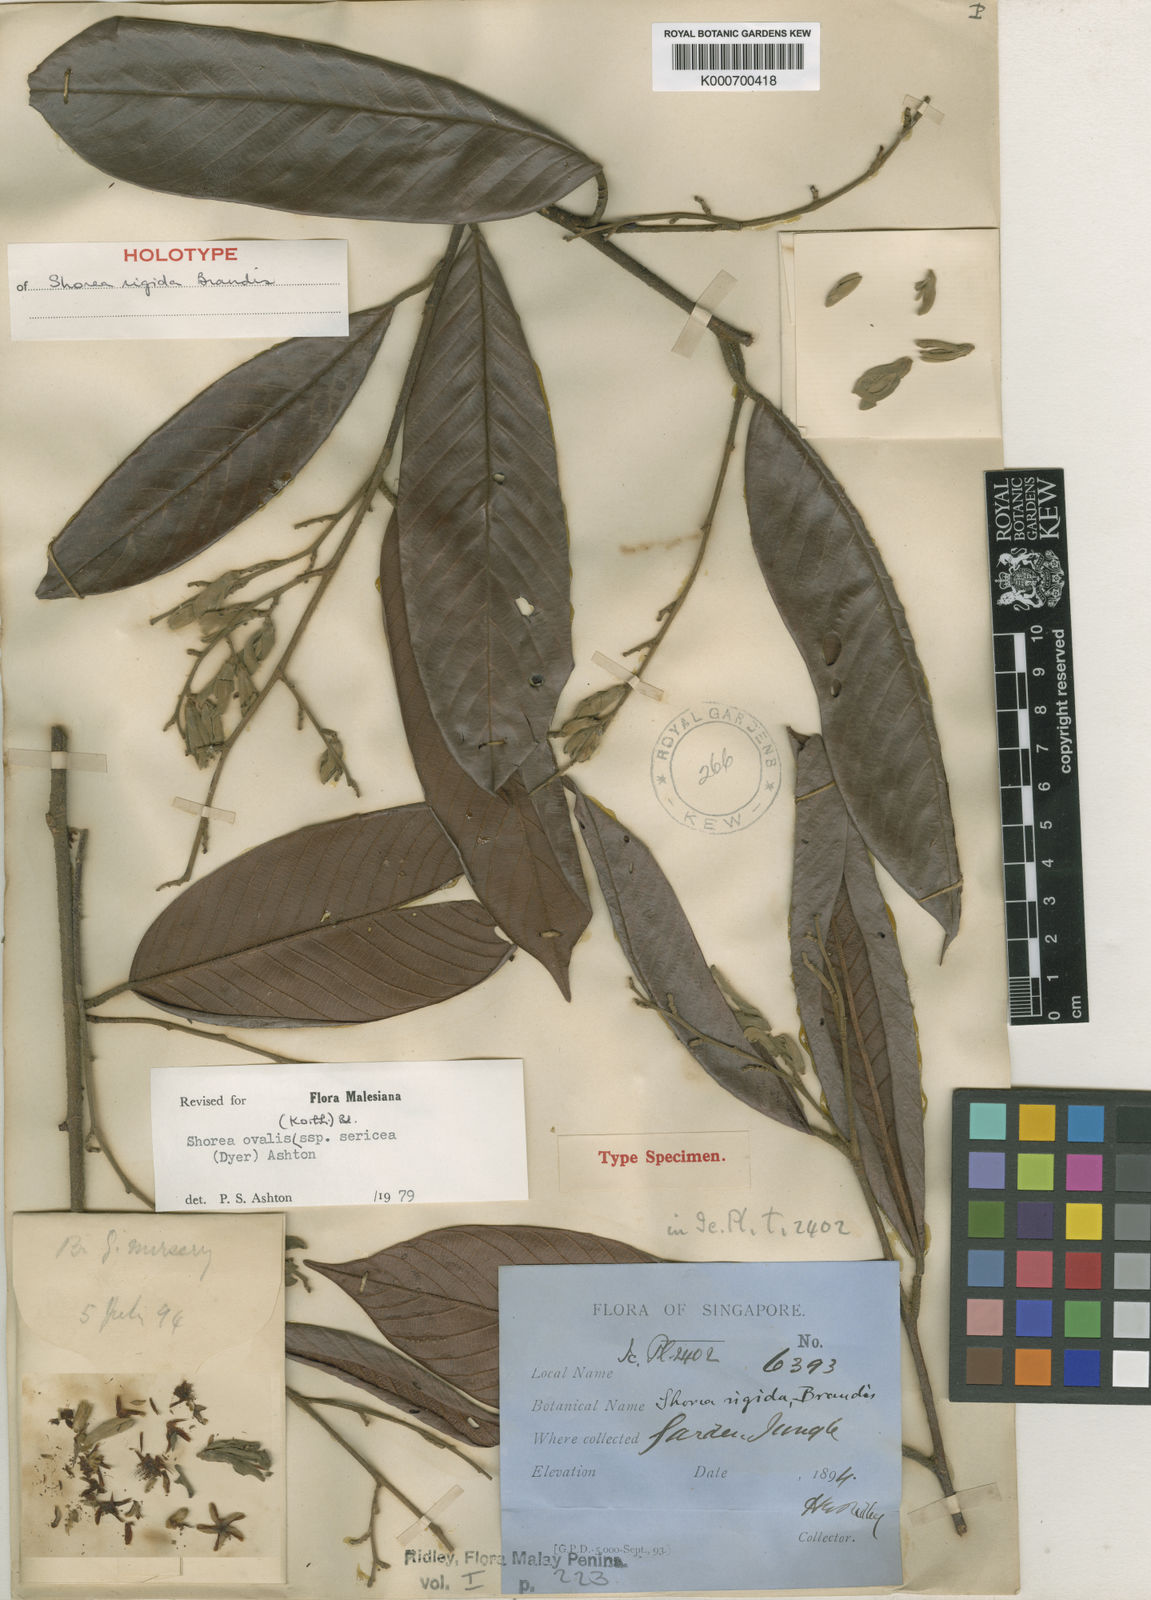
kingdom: Plantae
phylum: Tracheophyta
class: Magnoliopsida
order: Malvales
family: Dipterocarpaceae
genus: Shorea
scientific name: Shorea ovalis
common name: Light red meranti
